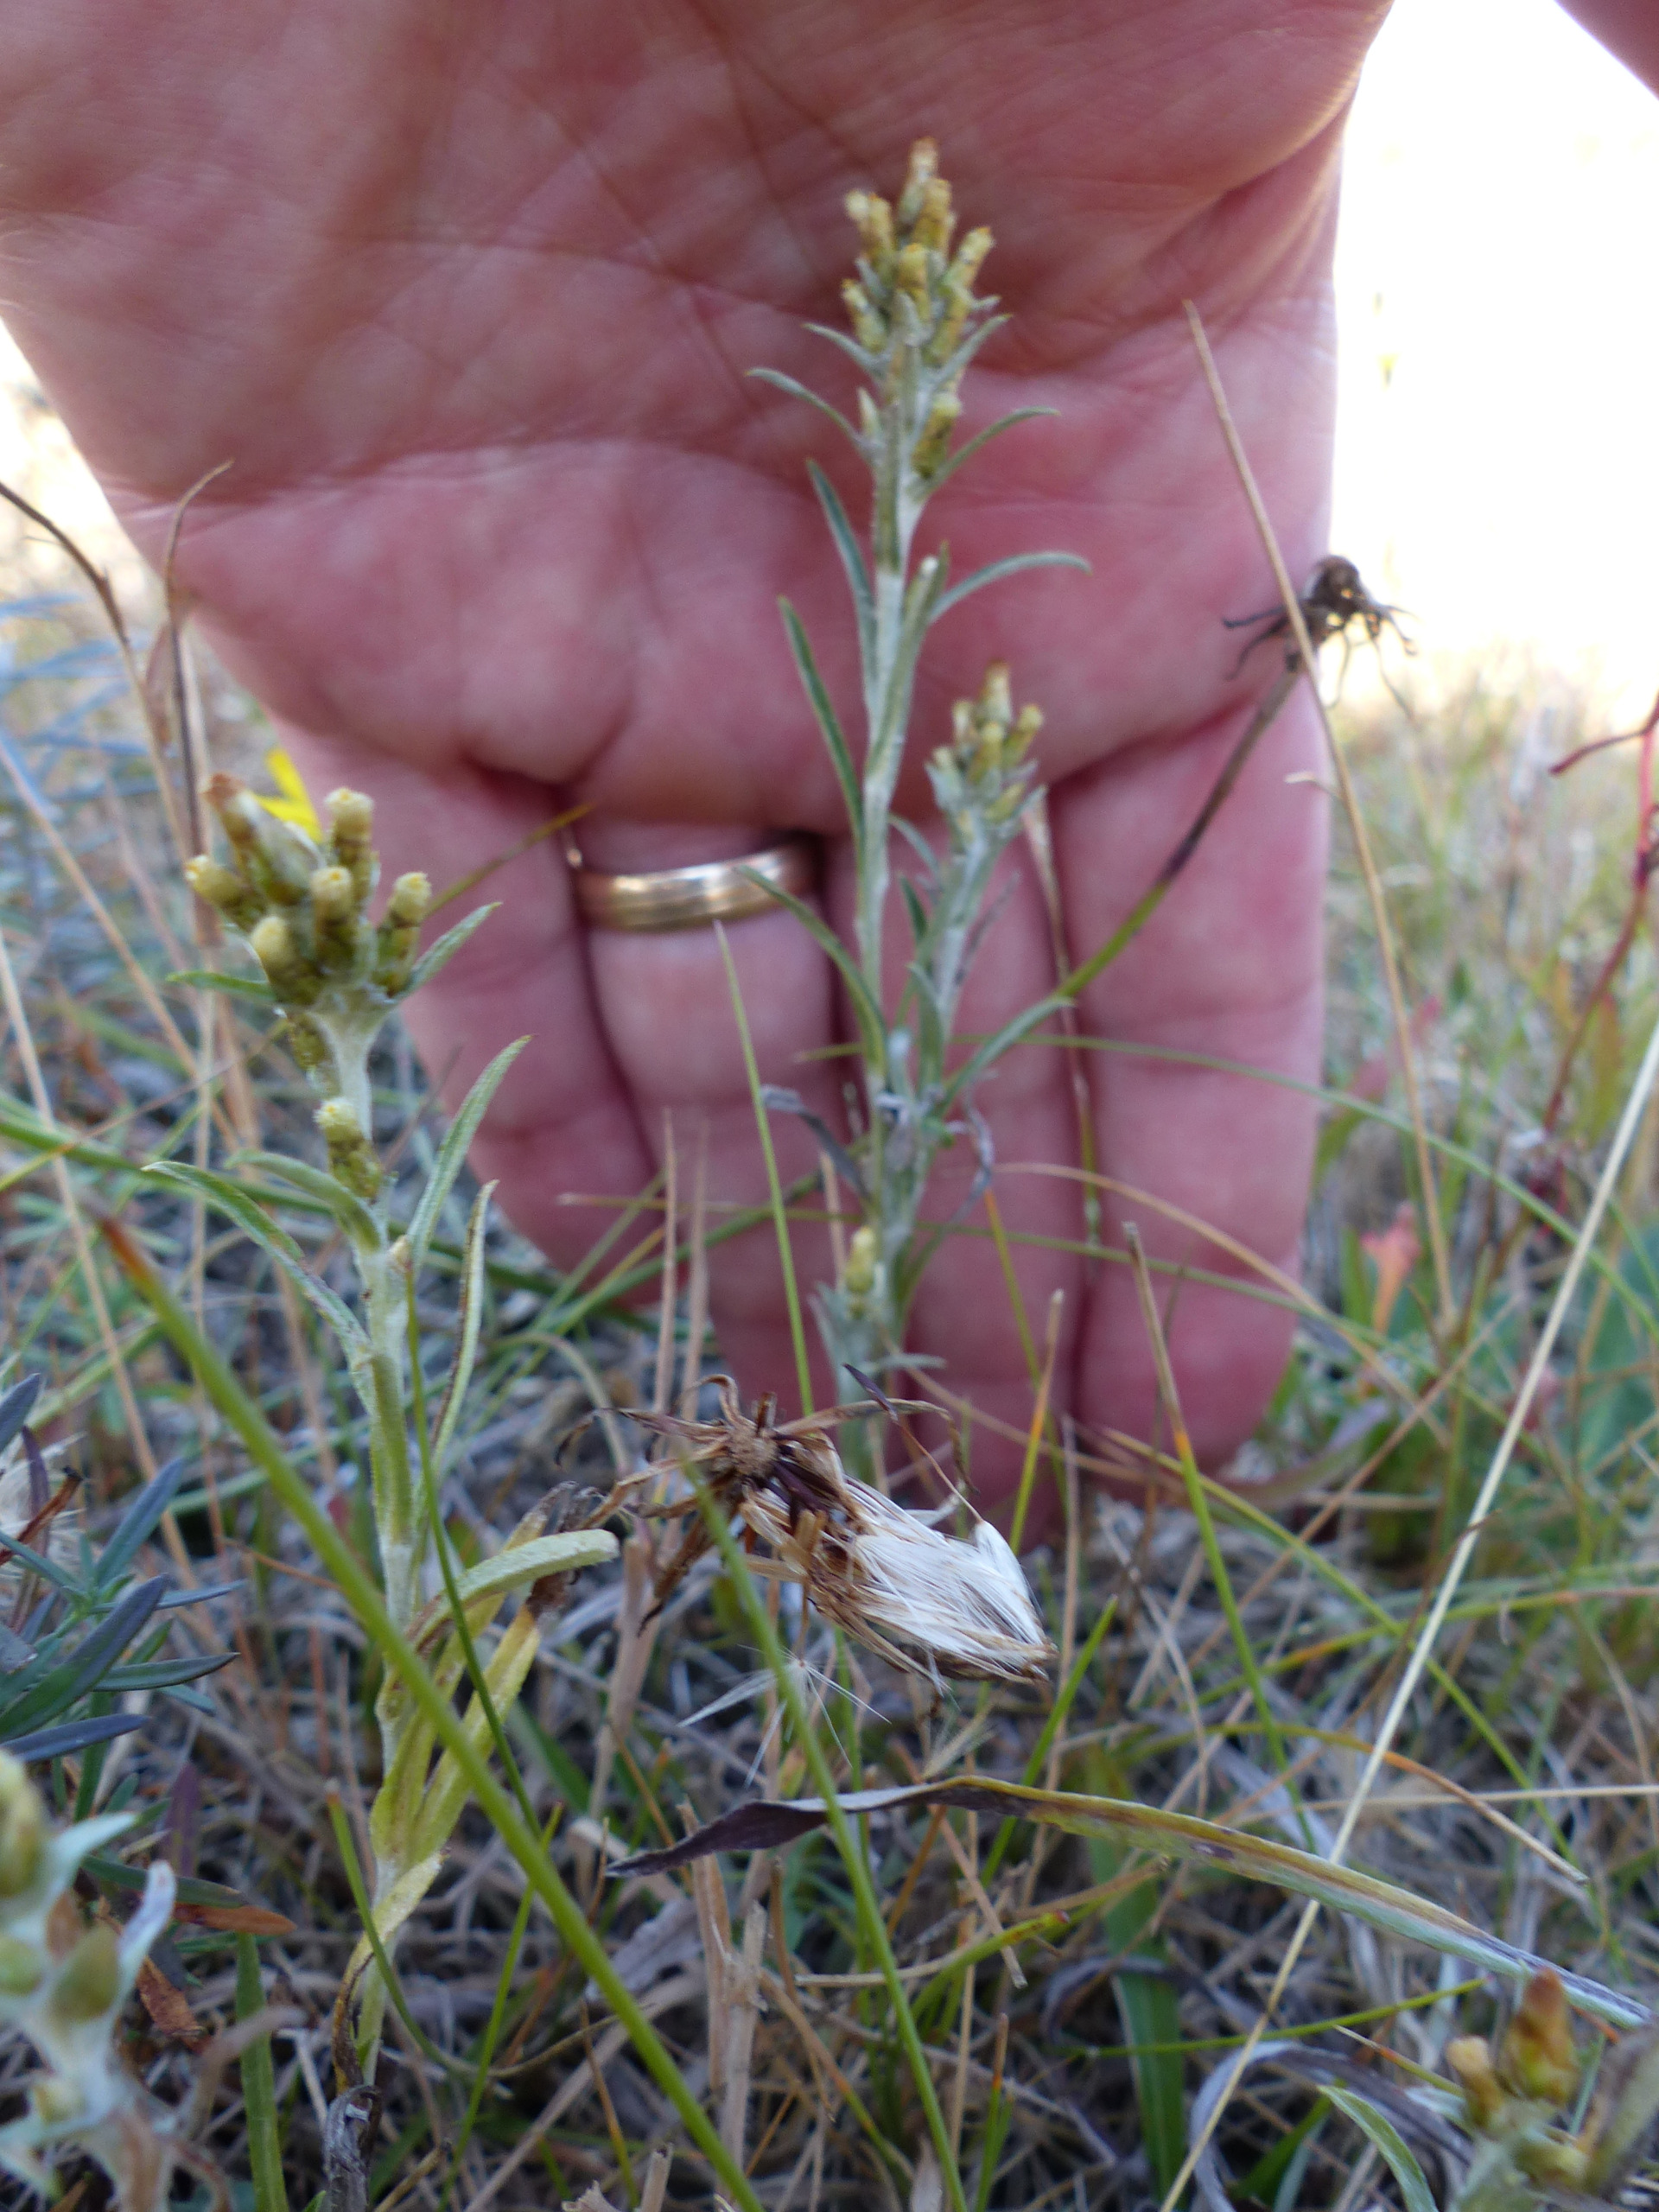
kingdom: Plantae
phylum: Tracheophyta
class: Magnoliopsida
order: Asterales
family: Asteraceae
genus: Omalotheca
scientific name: Omalotheca sylvatica
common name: Rank evighedsblomst
